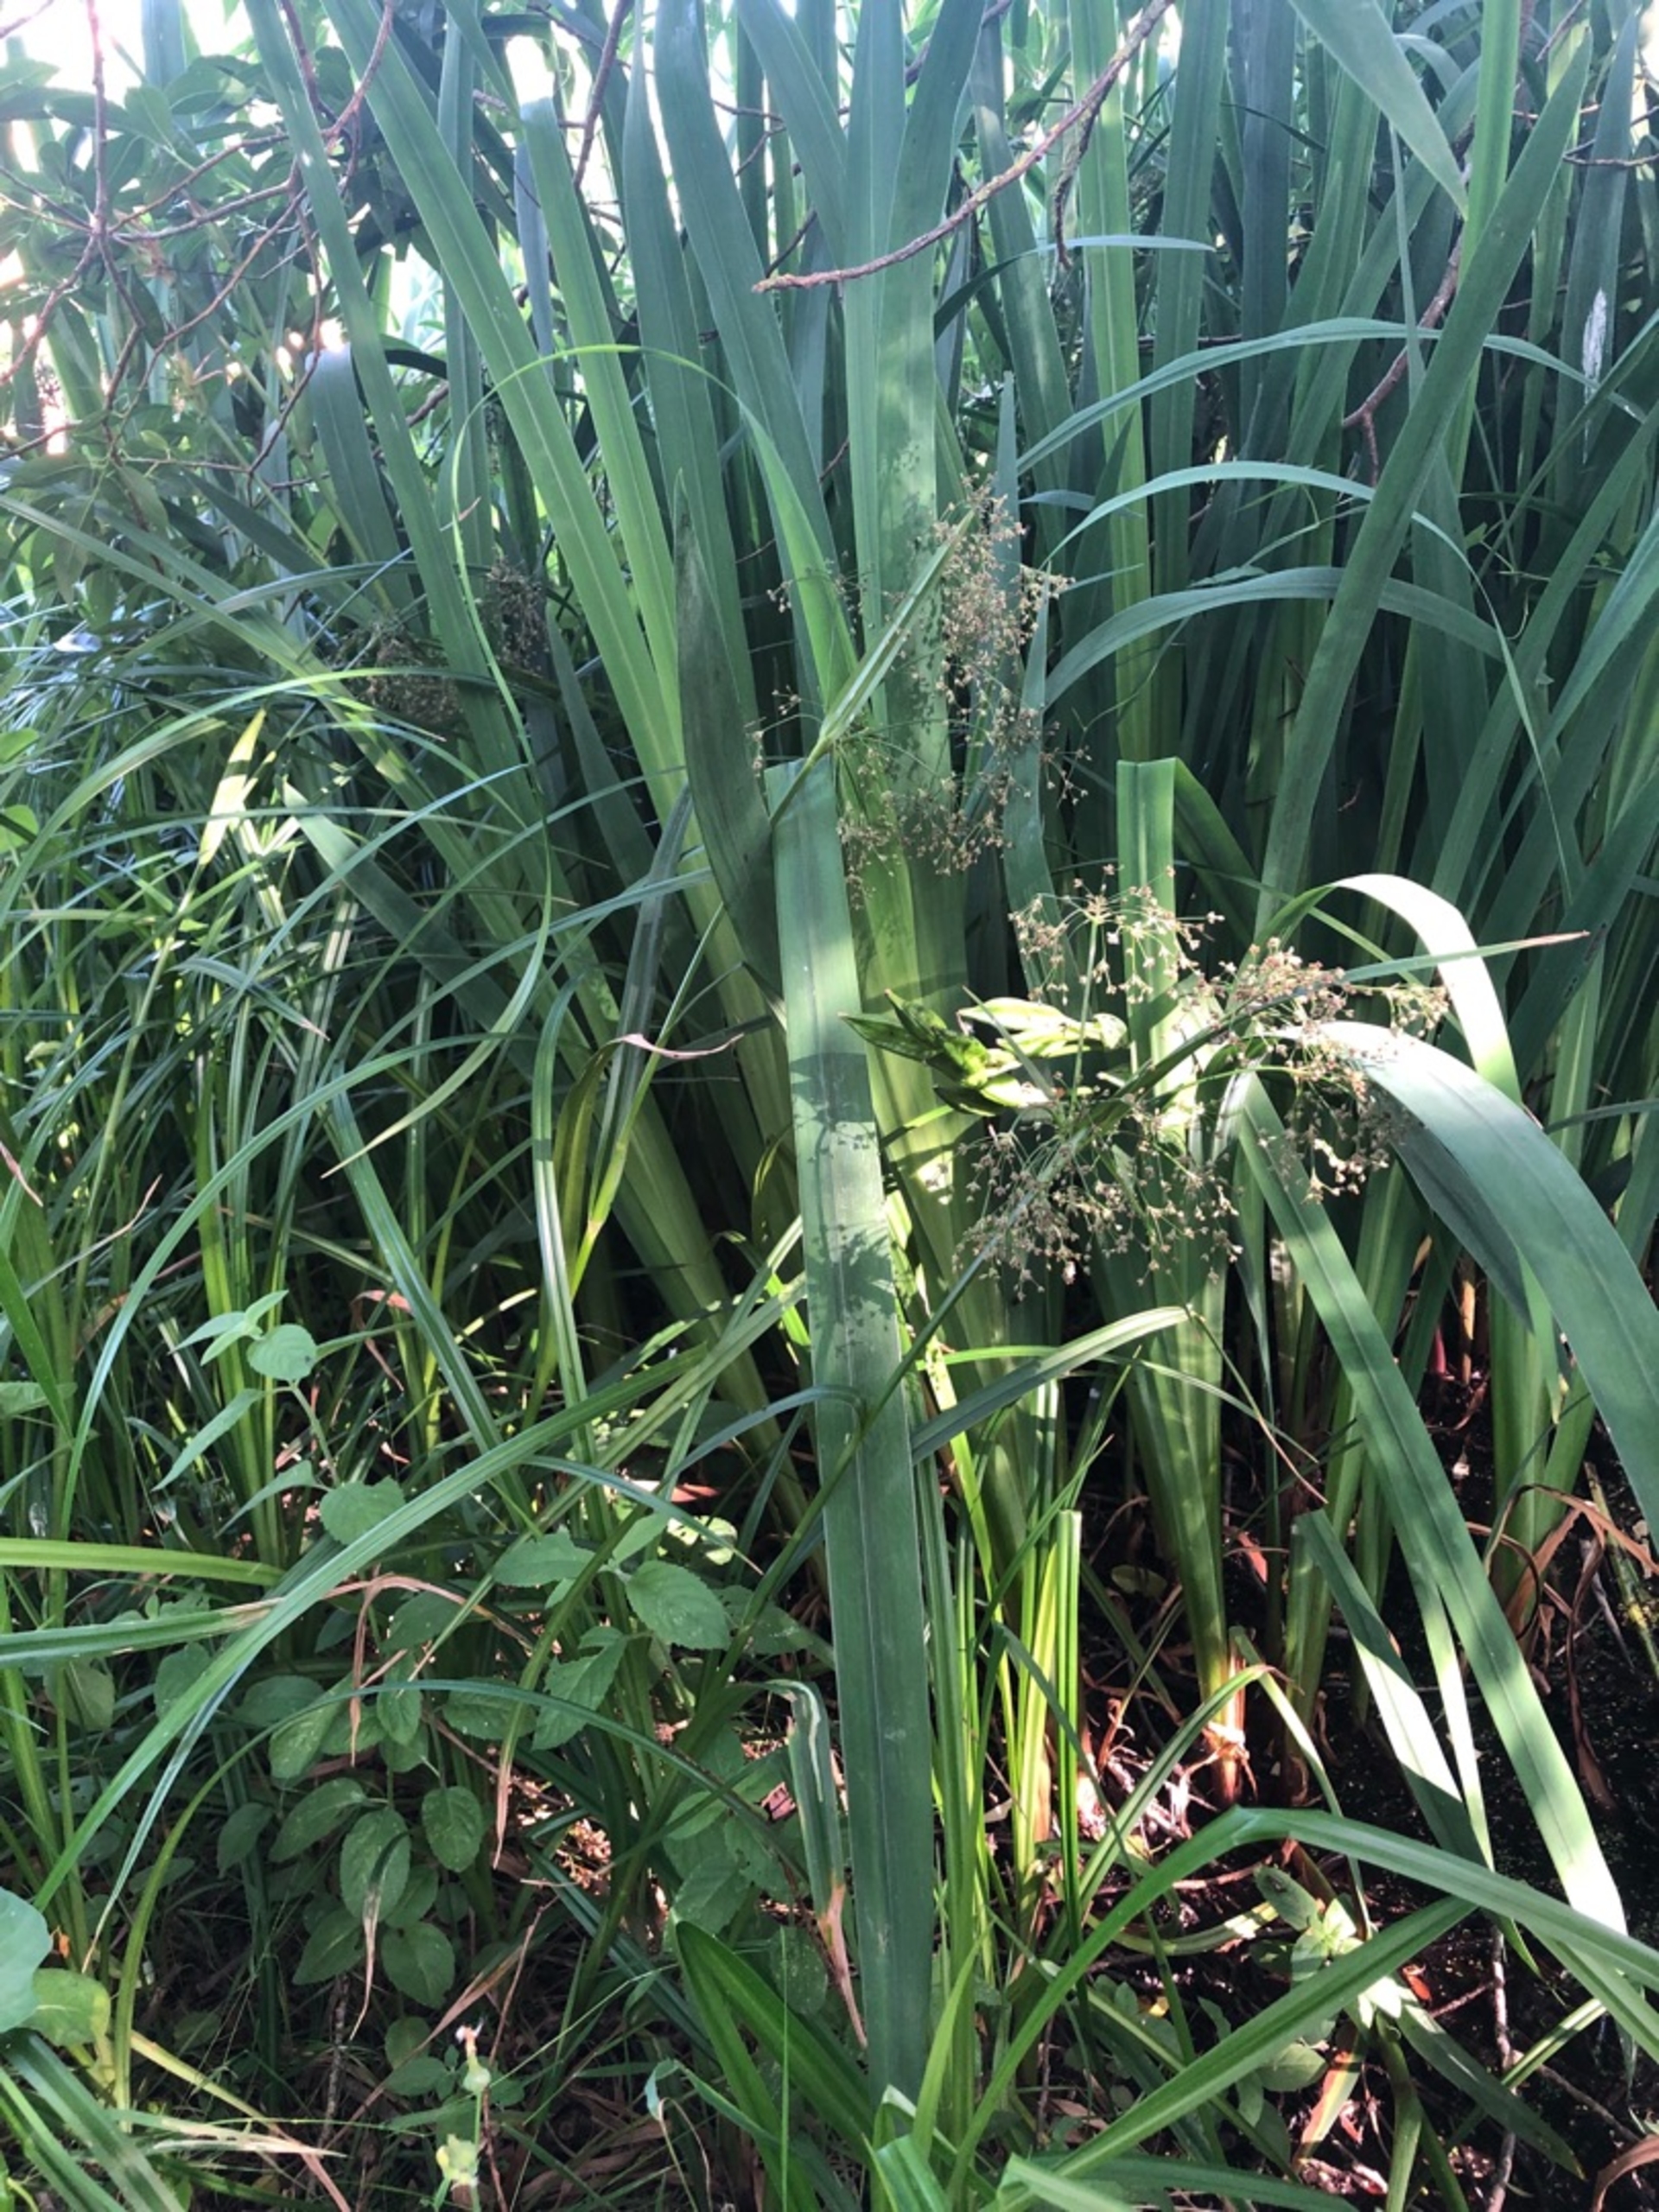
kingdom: Plantae
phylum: Tracheophyta
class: Liliopsida
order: Poales
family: Cyperaceae
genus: Scirpus
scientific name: Scirpus sylvaticus
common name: Skov-kogleaks
